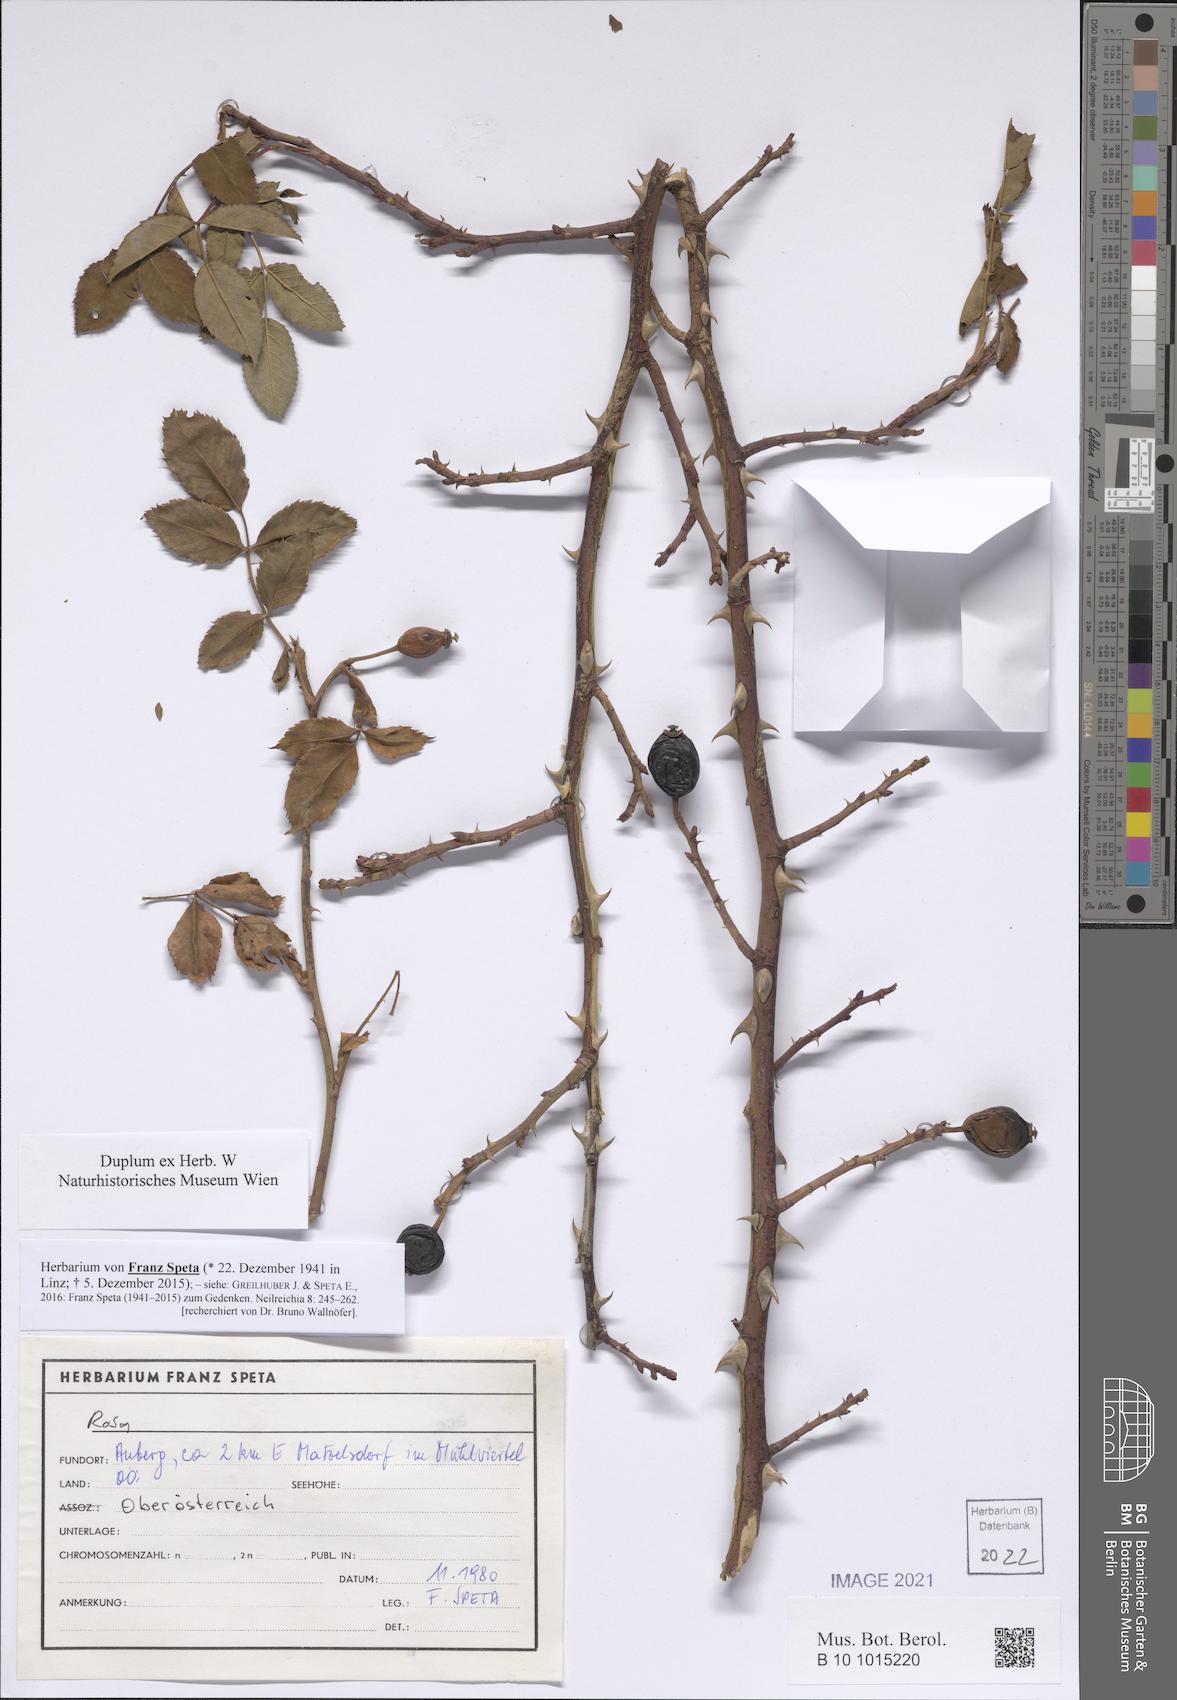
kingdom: Plantae
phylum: Tracheophyta
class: Magnoliopsida
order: Rosales
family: Rosaceae
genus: Rosa
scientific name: Rosa
